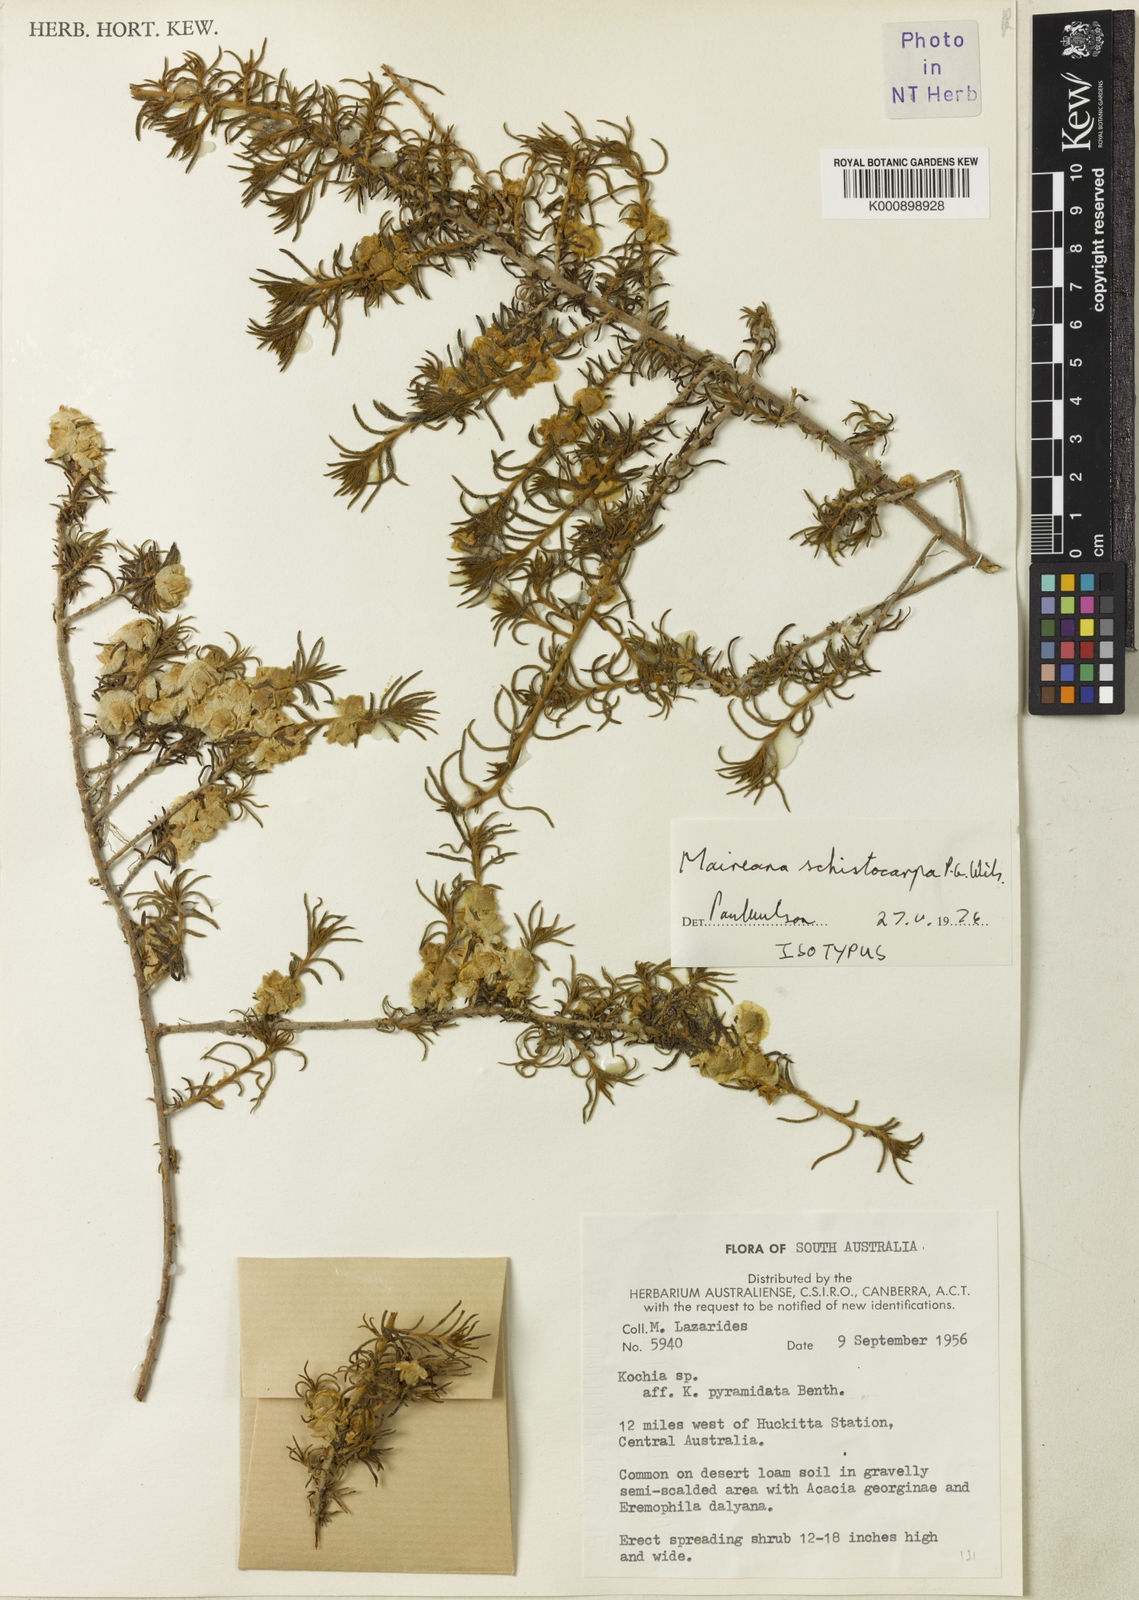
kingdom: Plantae
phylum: Tracheophyta
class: Magnoliopsida
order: Caryophyllales
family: Amaranthaceae
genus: Maireana
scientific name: Maireana schistocarpa
